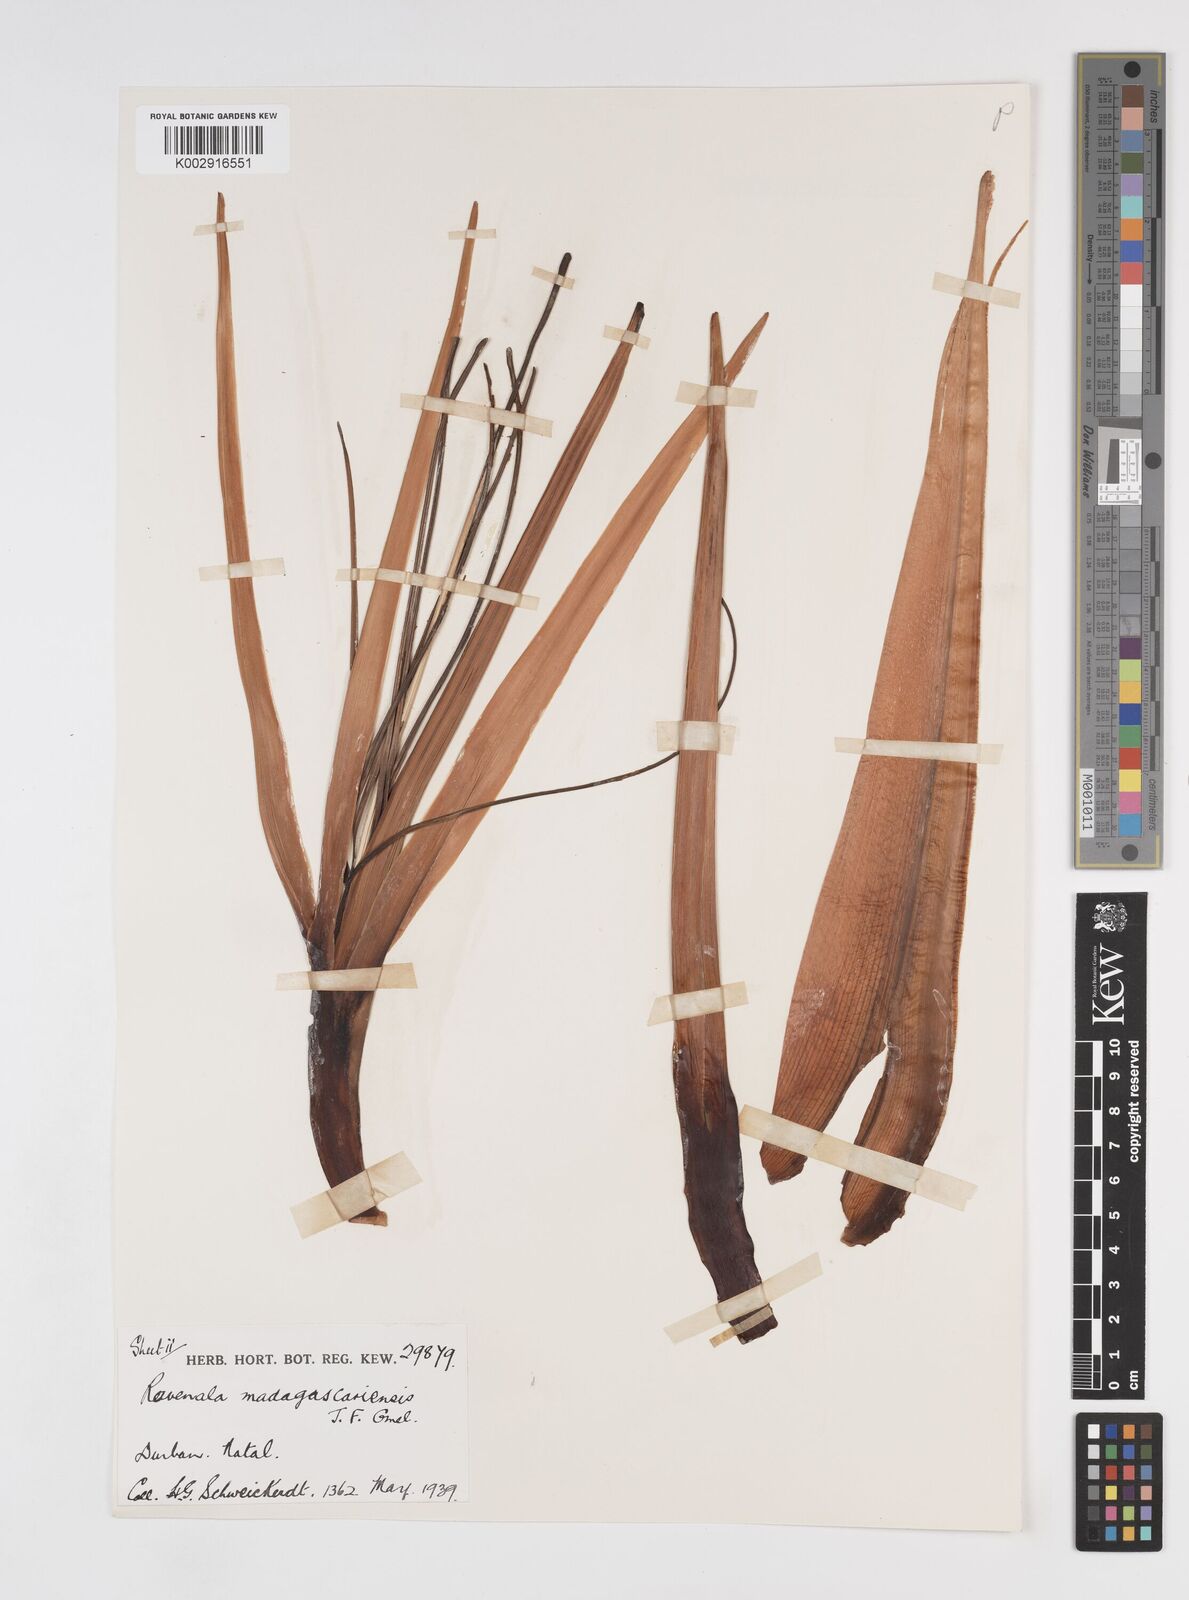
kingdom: Plantae
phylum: Tracheophyta
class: Liliopsida
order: Zingiberales
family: Strelitziaceae
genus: Ravenala
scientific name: Ravenala madagascariensis
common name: Traveler's-palm
